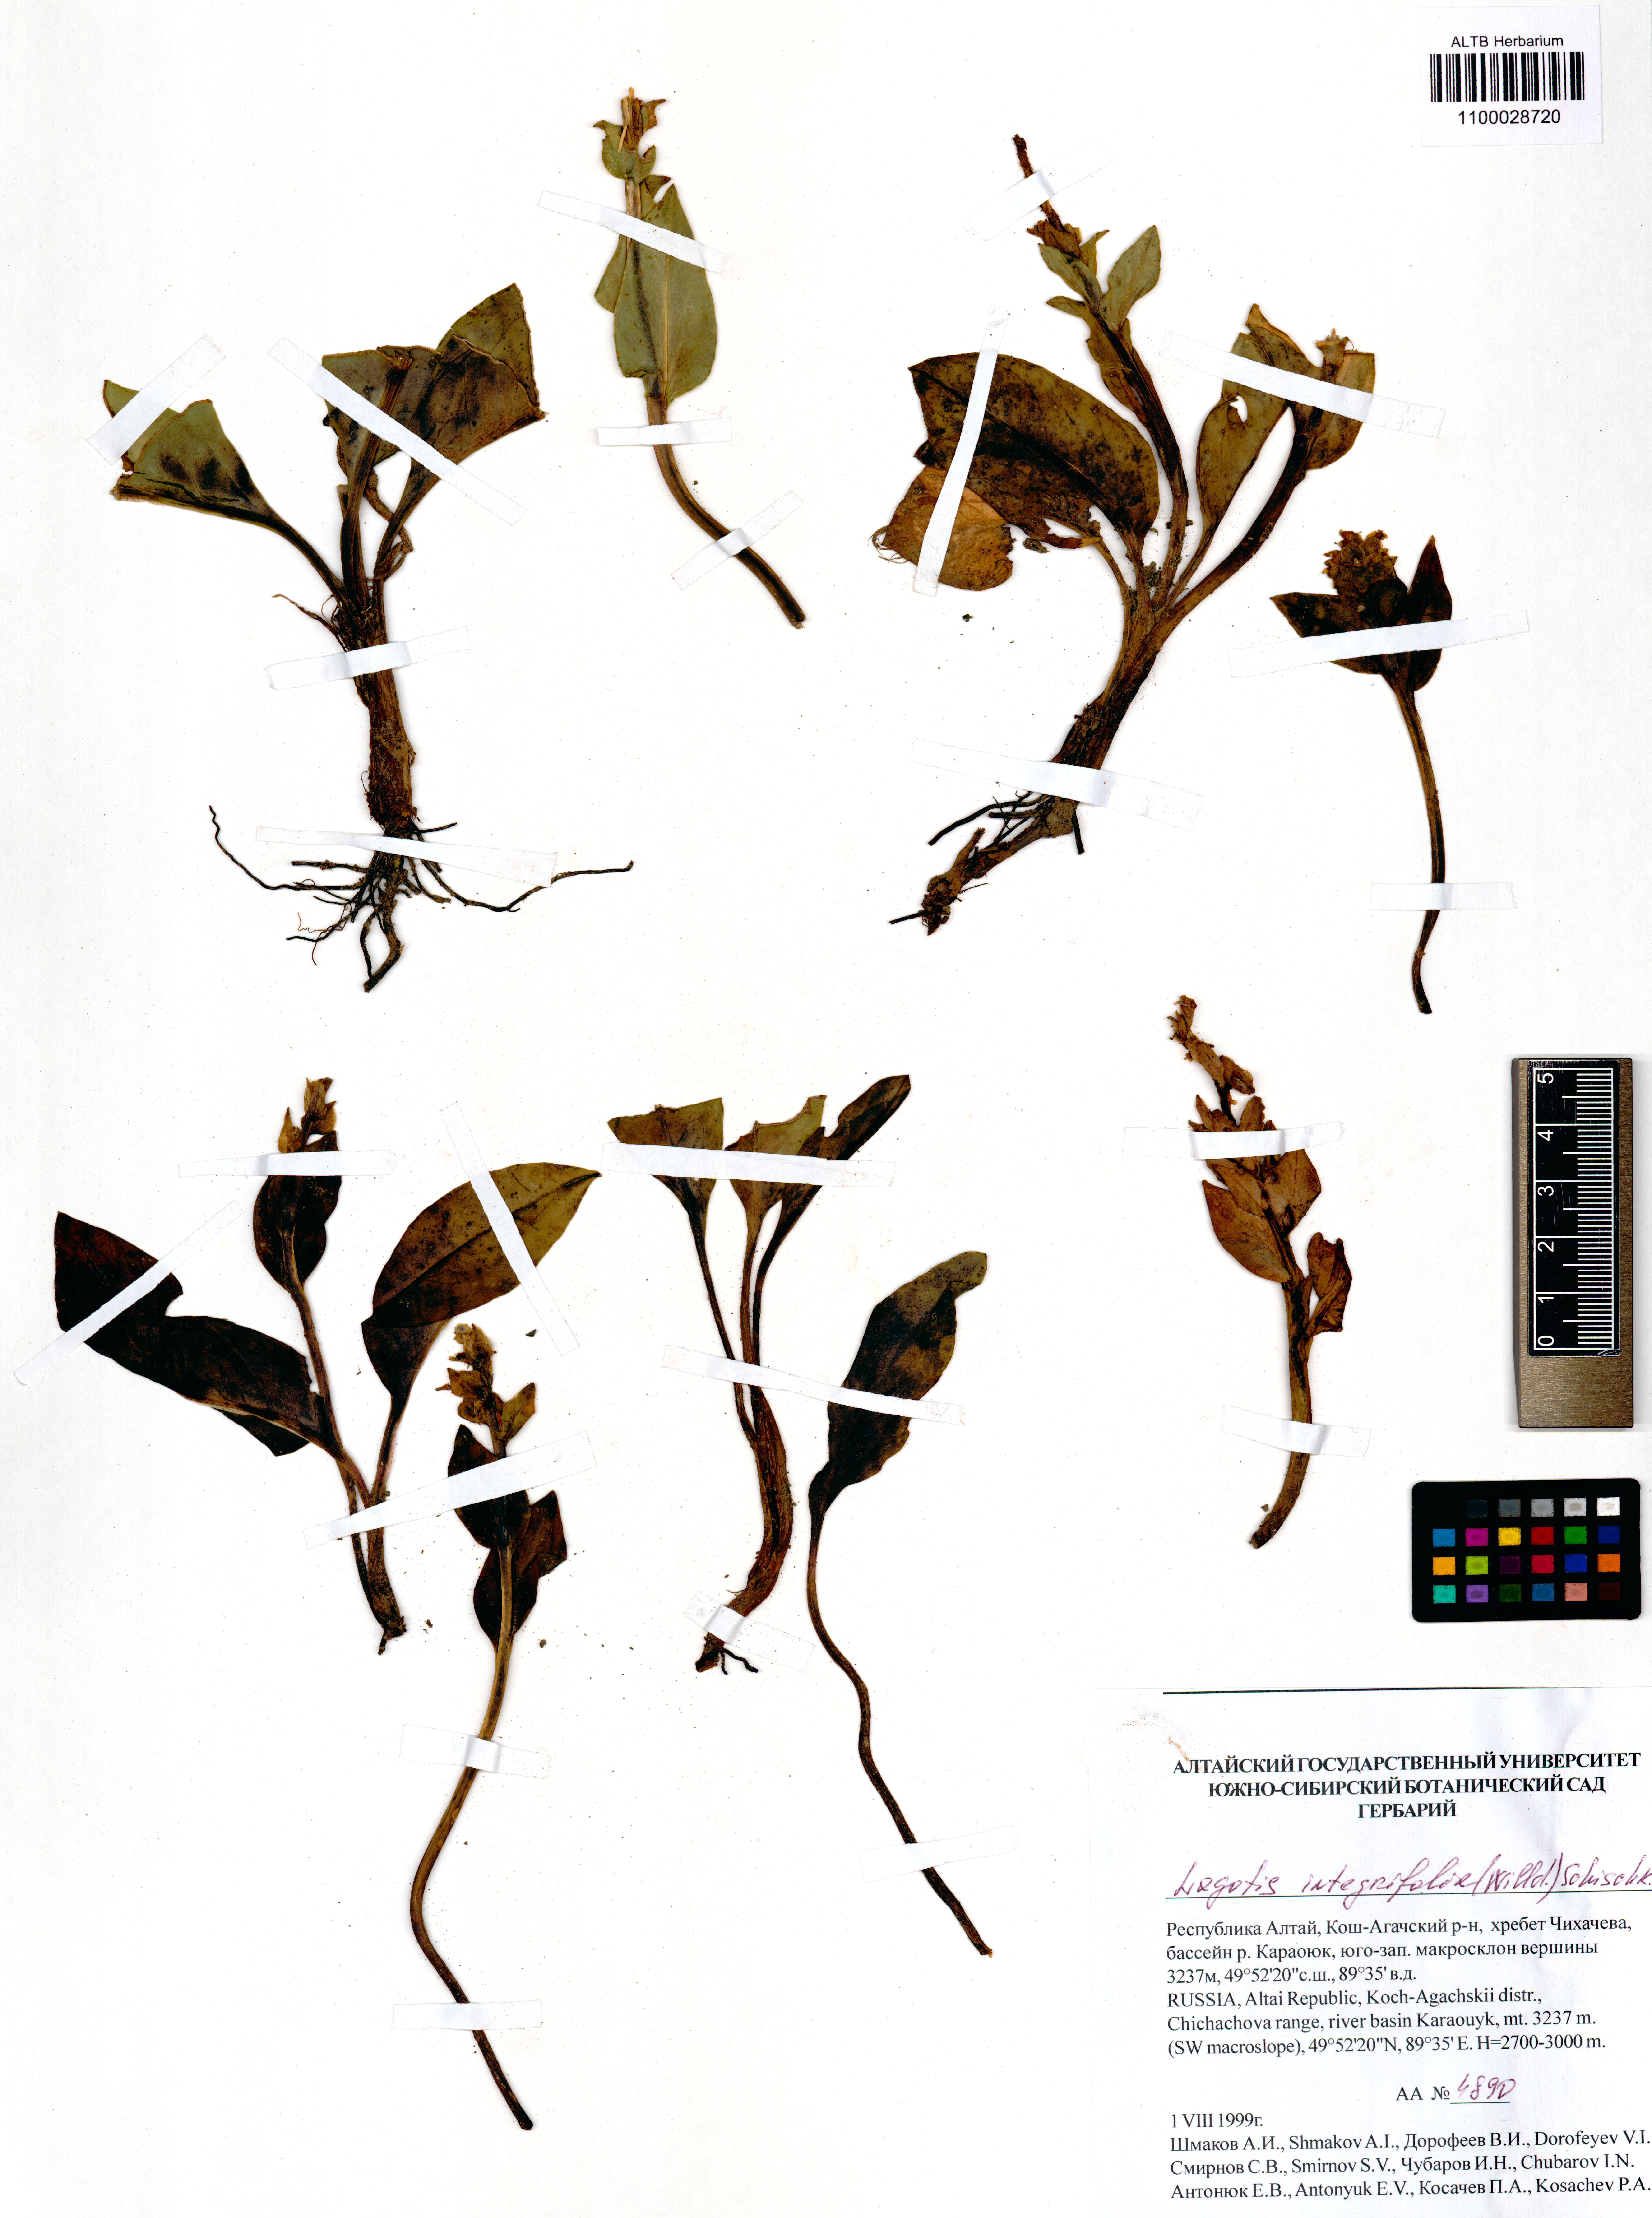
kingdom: Plantae
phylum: Tracheophyta
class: Magnoliopsida
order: Lamiales
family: Plantaginaceae
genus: Lagotis
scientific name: Lagotis integrifolia
